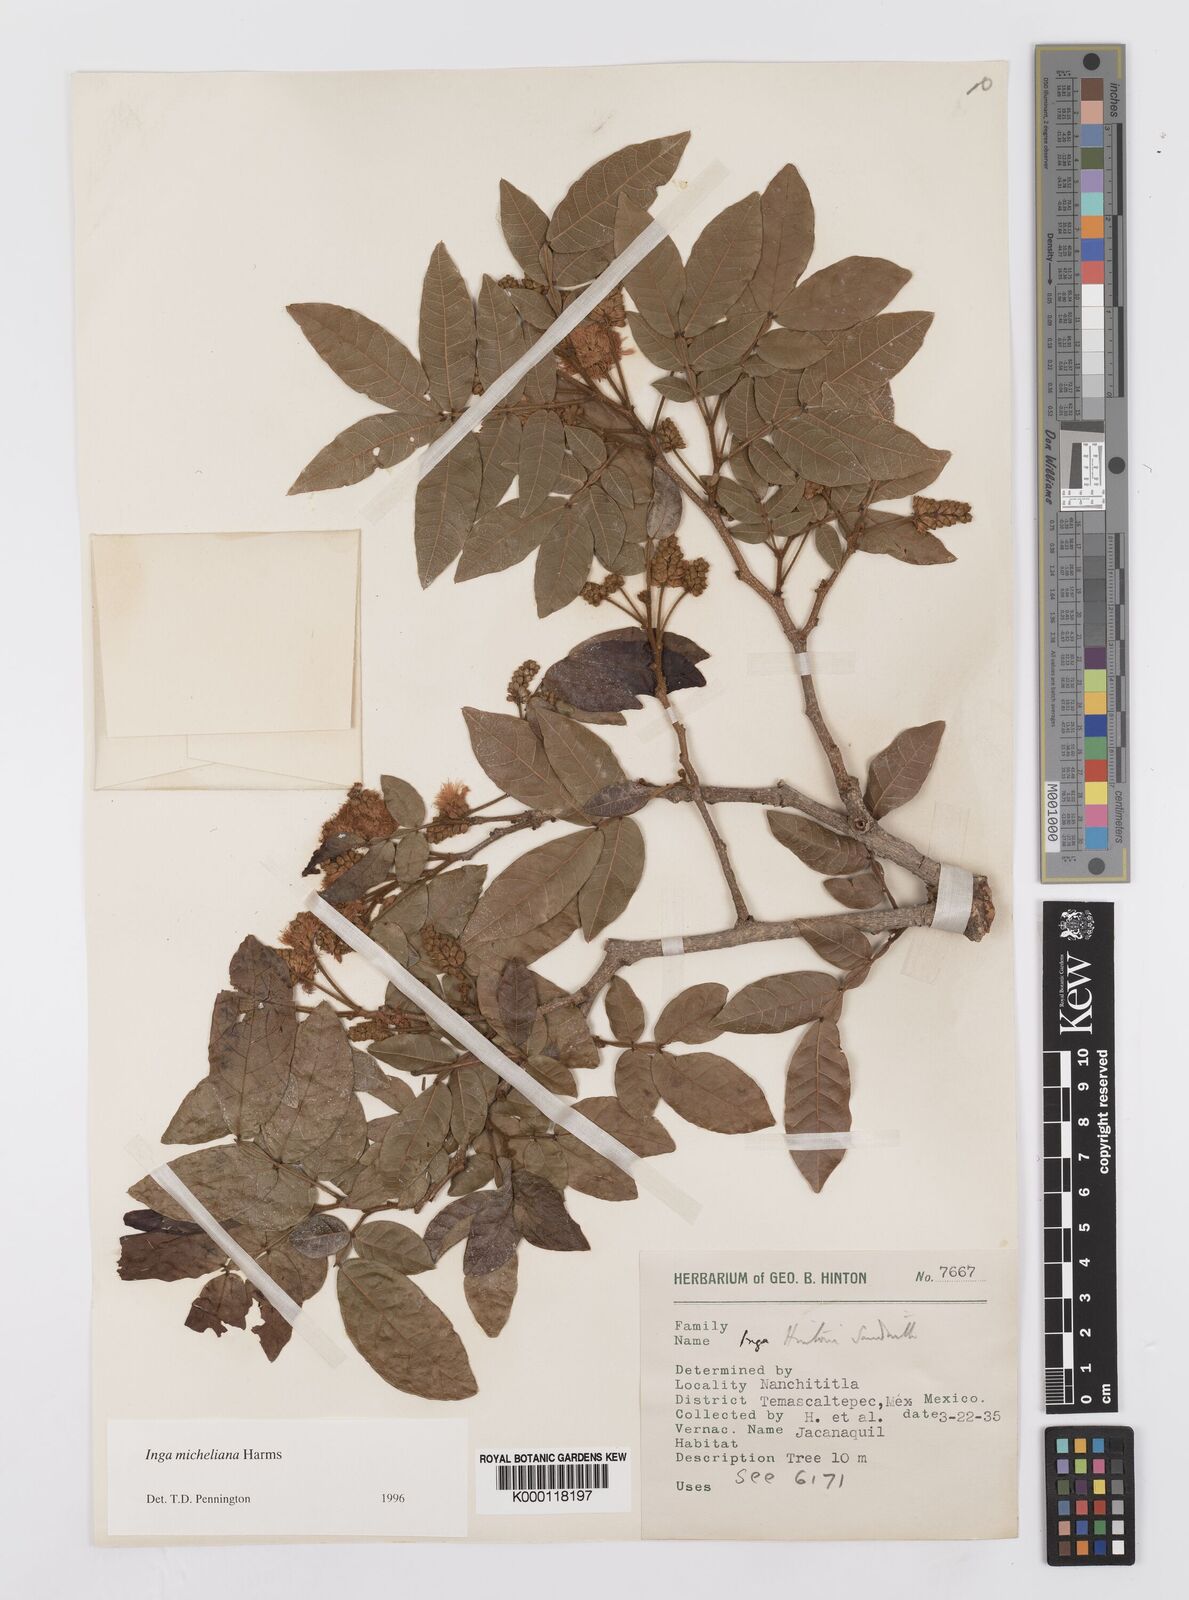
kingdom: Plantae
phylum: Tracheophyta
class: Magnoliopsida
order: Fabales
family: Fabaceae
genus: Inga
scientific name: Inga flexuosa
